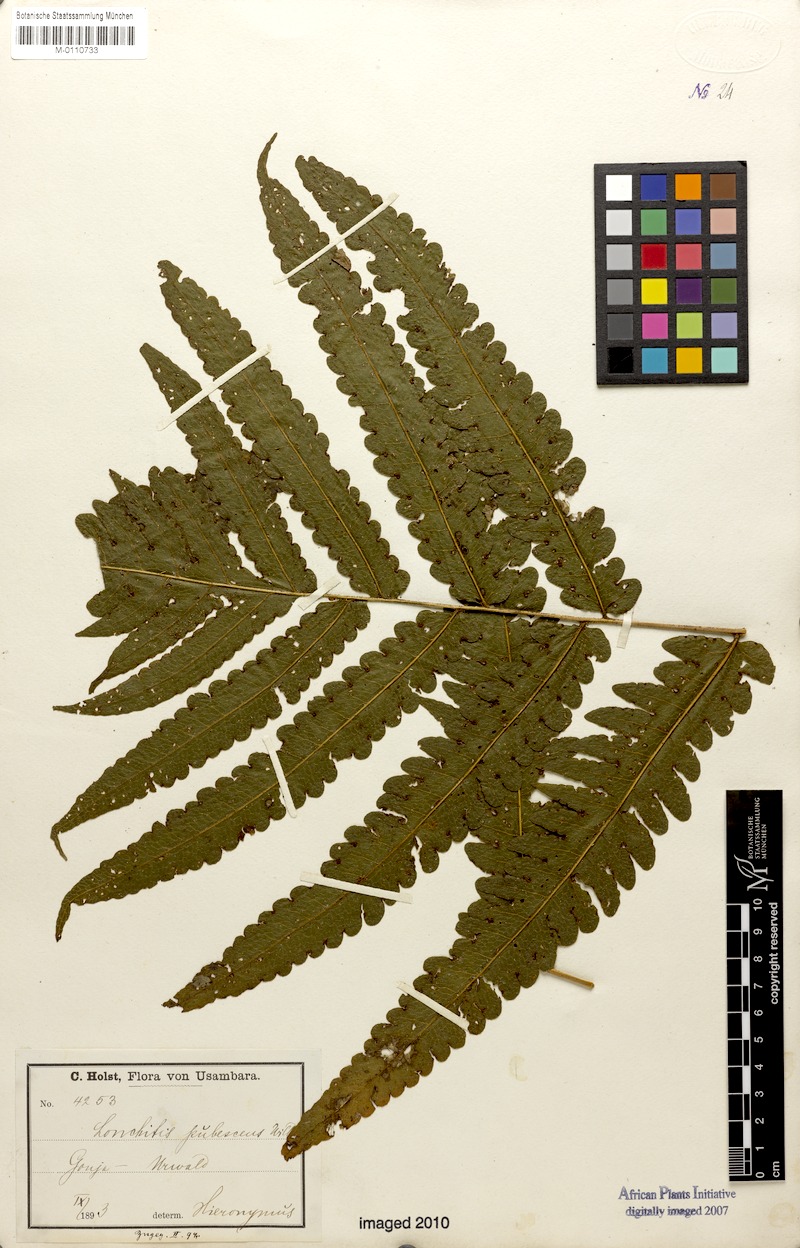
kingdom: Plantae
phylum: Tracheophyta
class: Polypodiopsida
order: Polypodiales
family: Dennstaedtiaceae
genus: Blotiella
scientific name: Blotiella hieronymi
